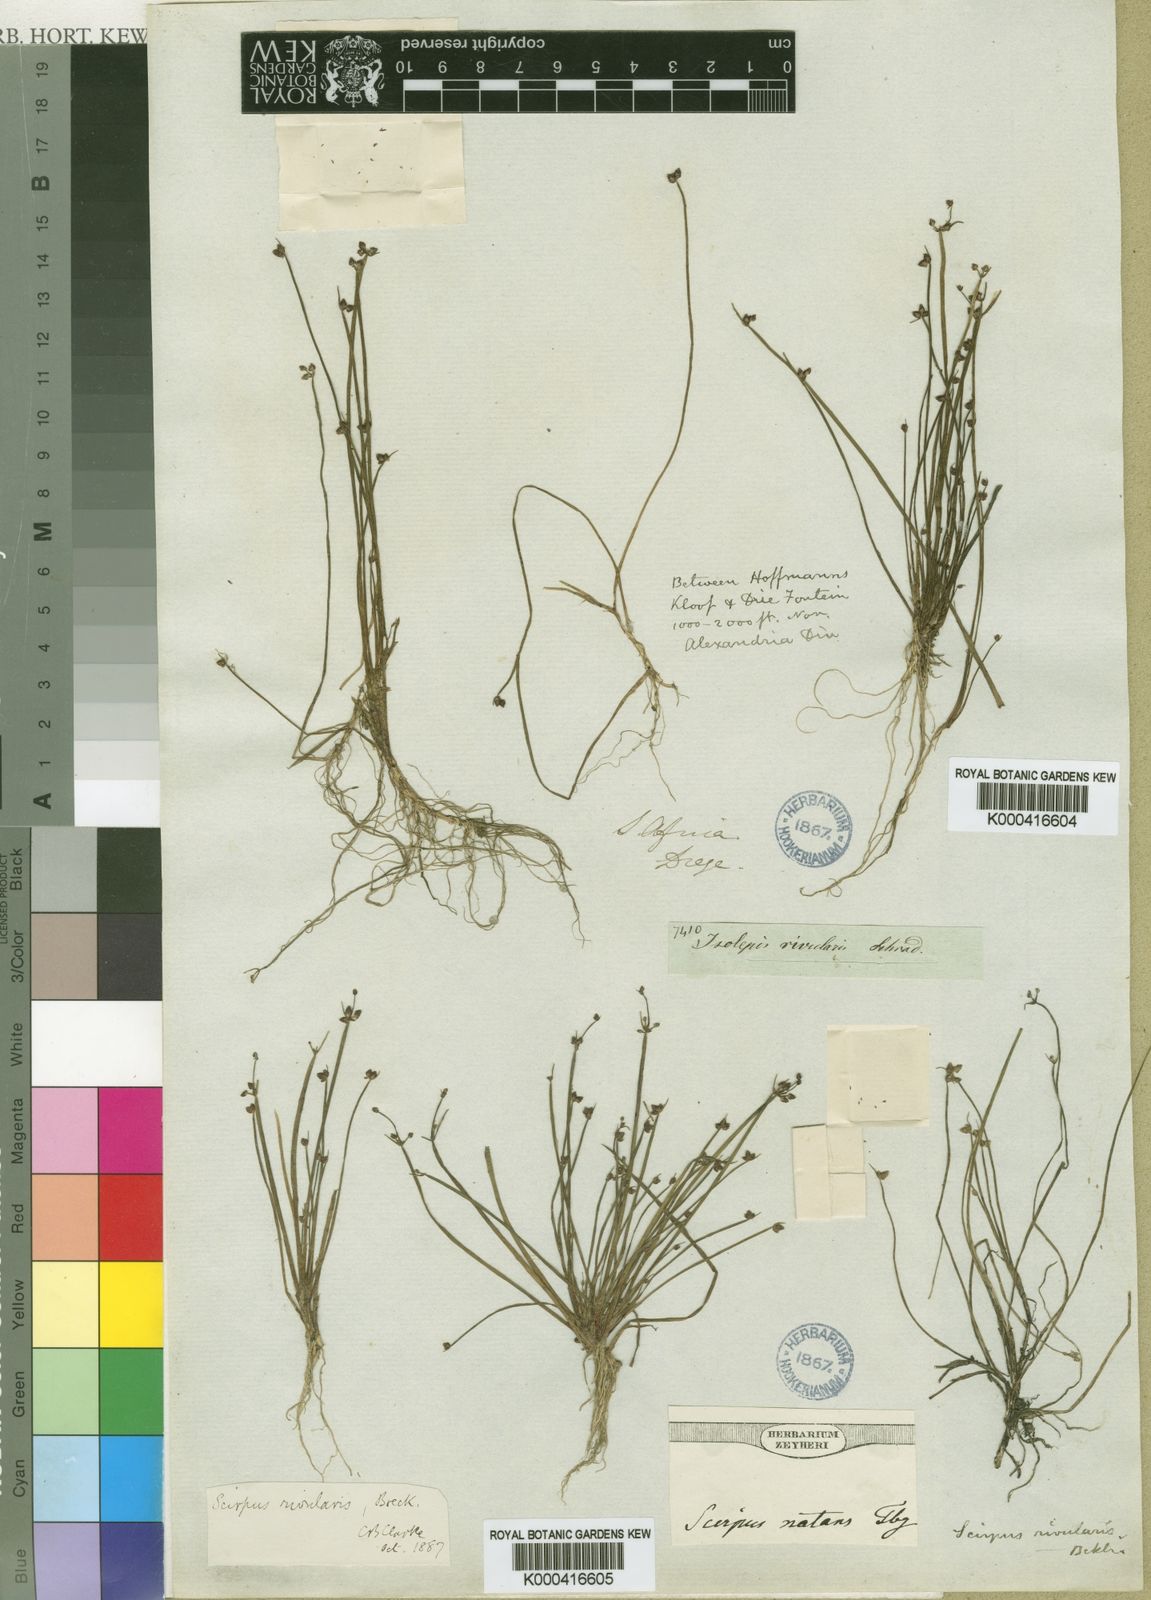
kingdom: Plantae
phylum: Tracheophyta
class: Liliopsida
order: Poales
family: Cyperaceae
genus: Isolepis
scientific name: Isolepis natans
